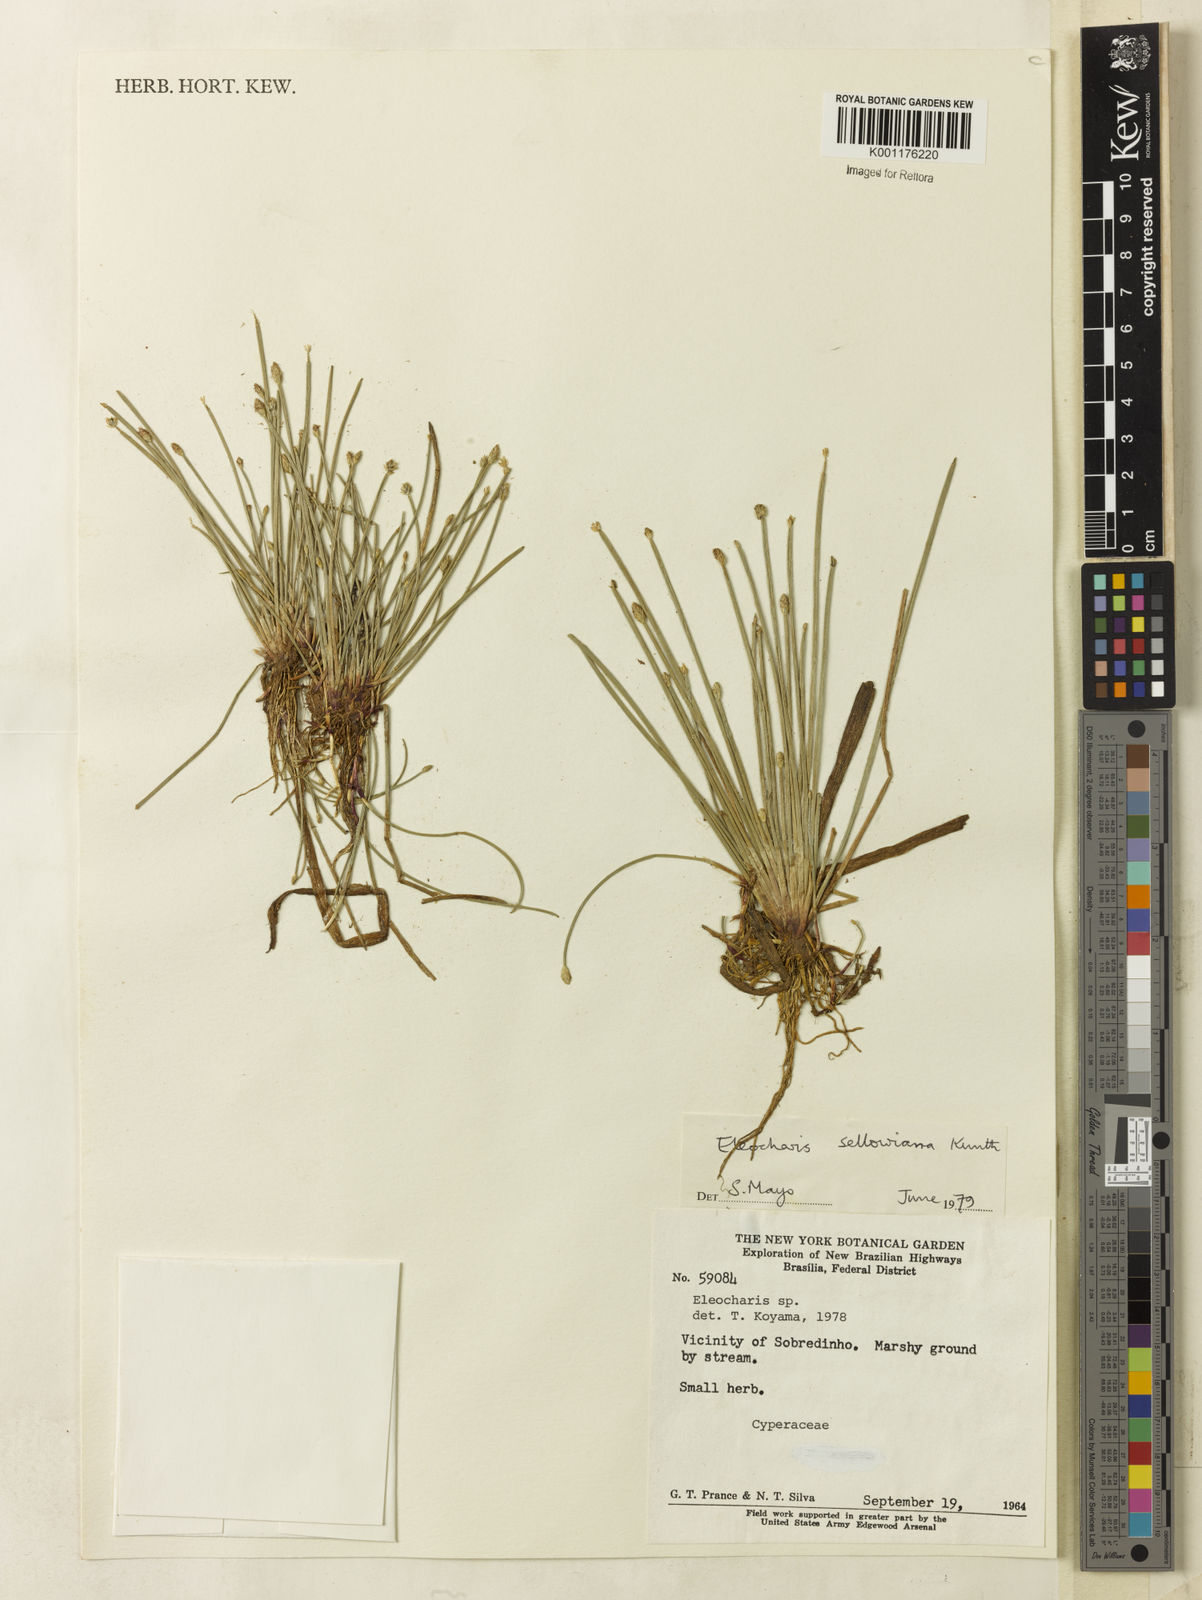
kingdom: Plantae
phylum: Tracheophyta
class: Liliopsida
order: Poales
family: Cyperaceae
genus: Eleocharis
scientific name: Eleocharis sellowiana
